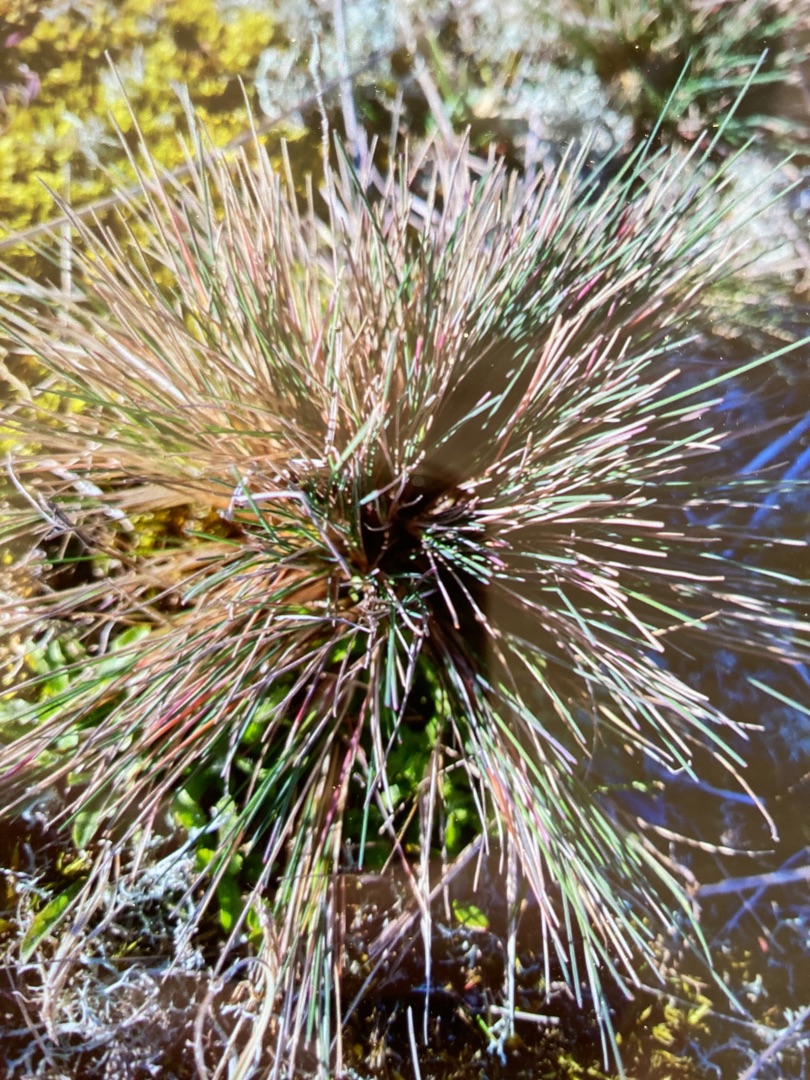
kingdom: Plantae
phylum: Tracheophyta
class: Liliopsida
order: Poales
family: Poaceae
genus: Corynephorus
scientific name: Corynephorus canescens
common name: Sandskæg
